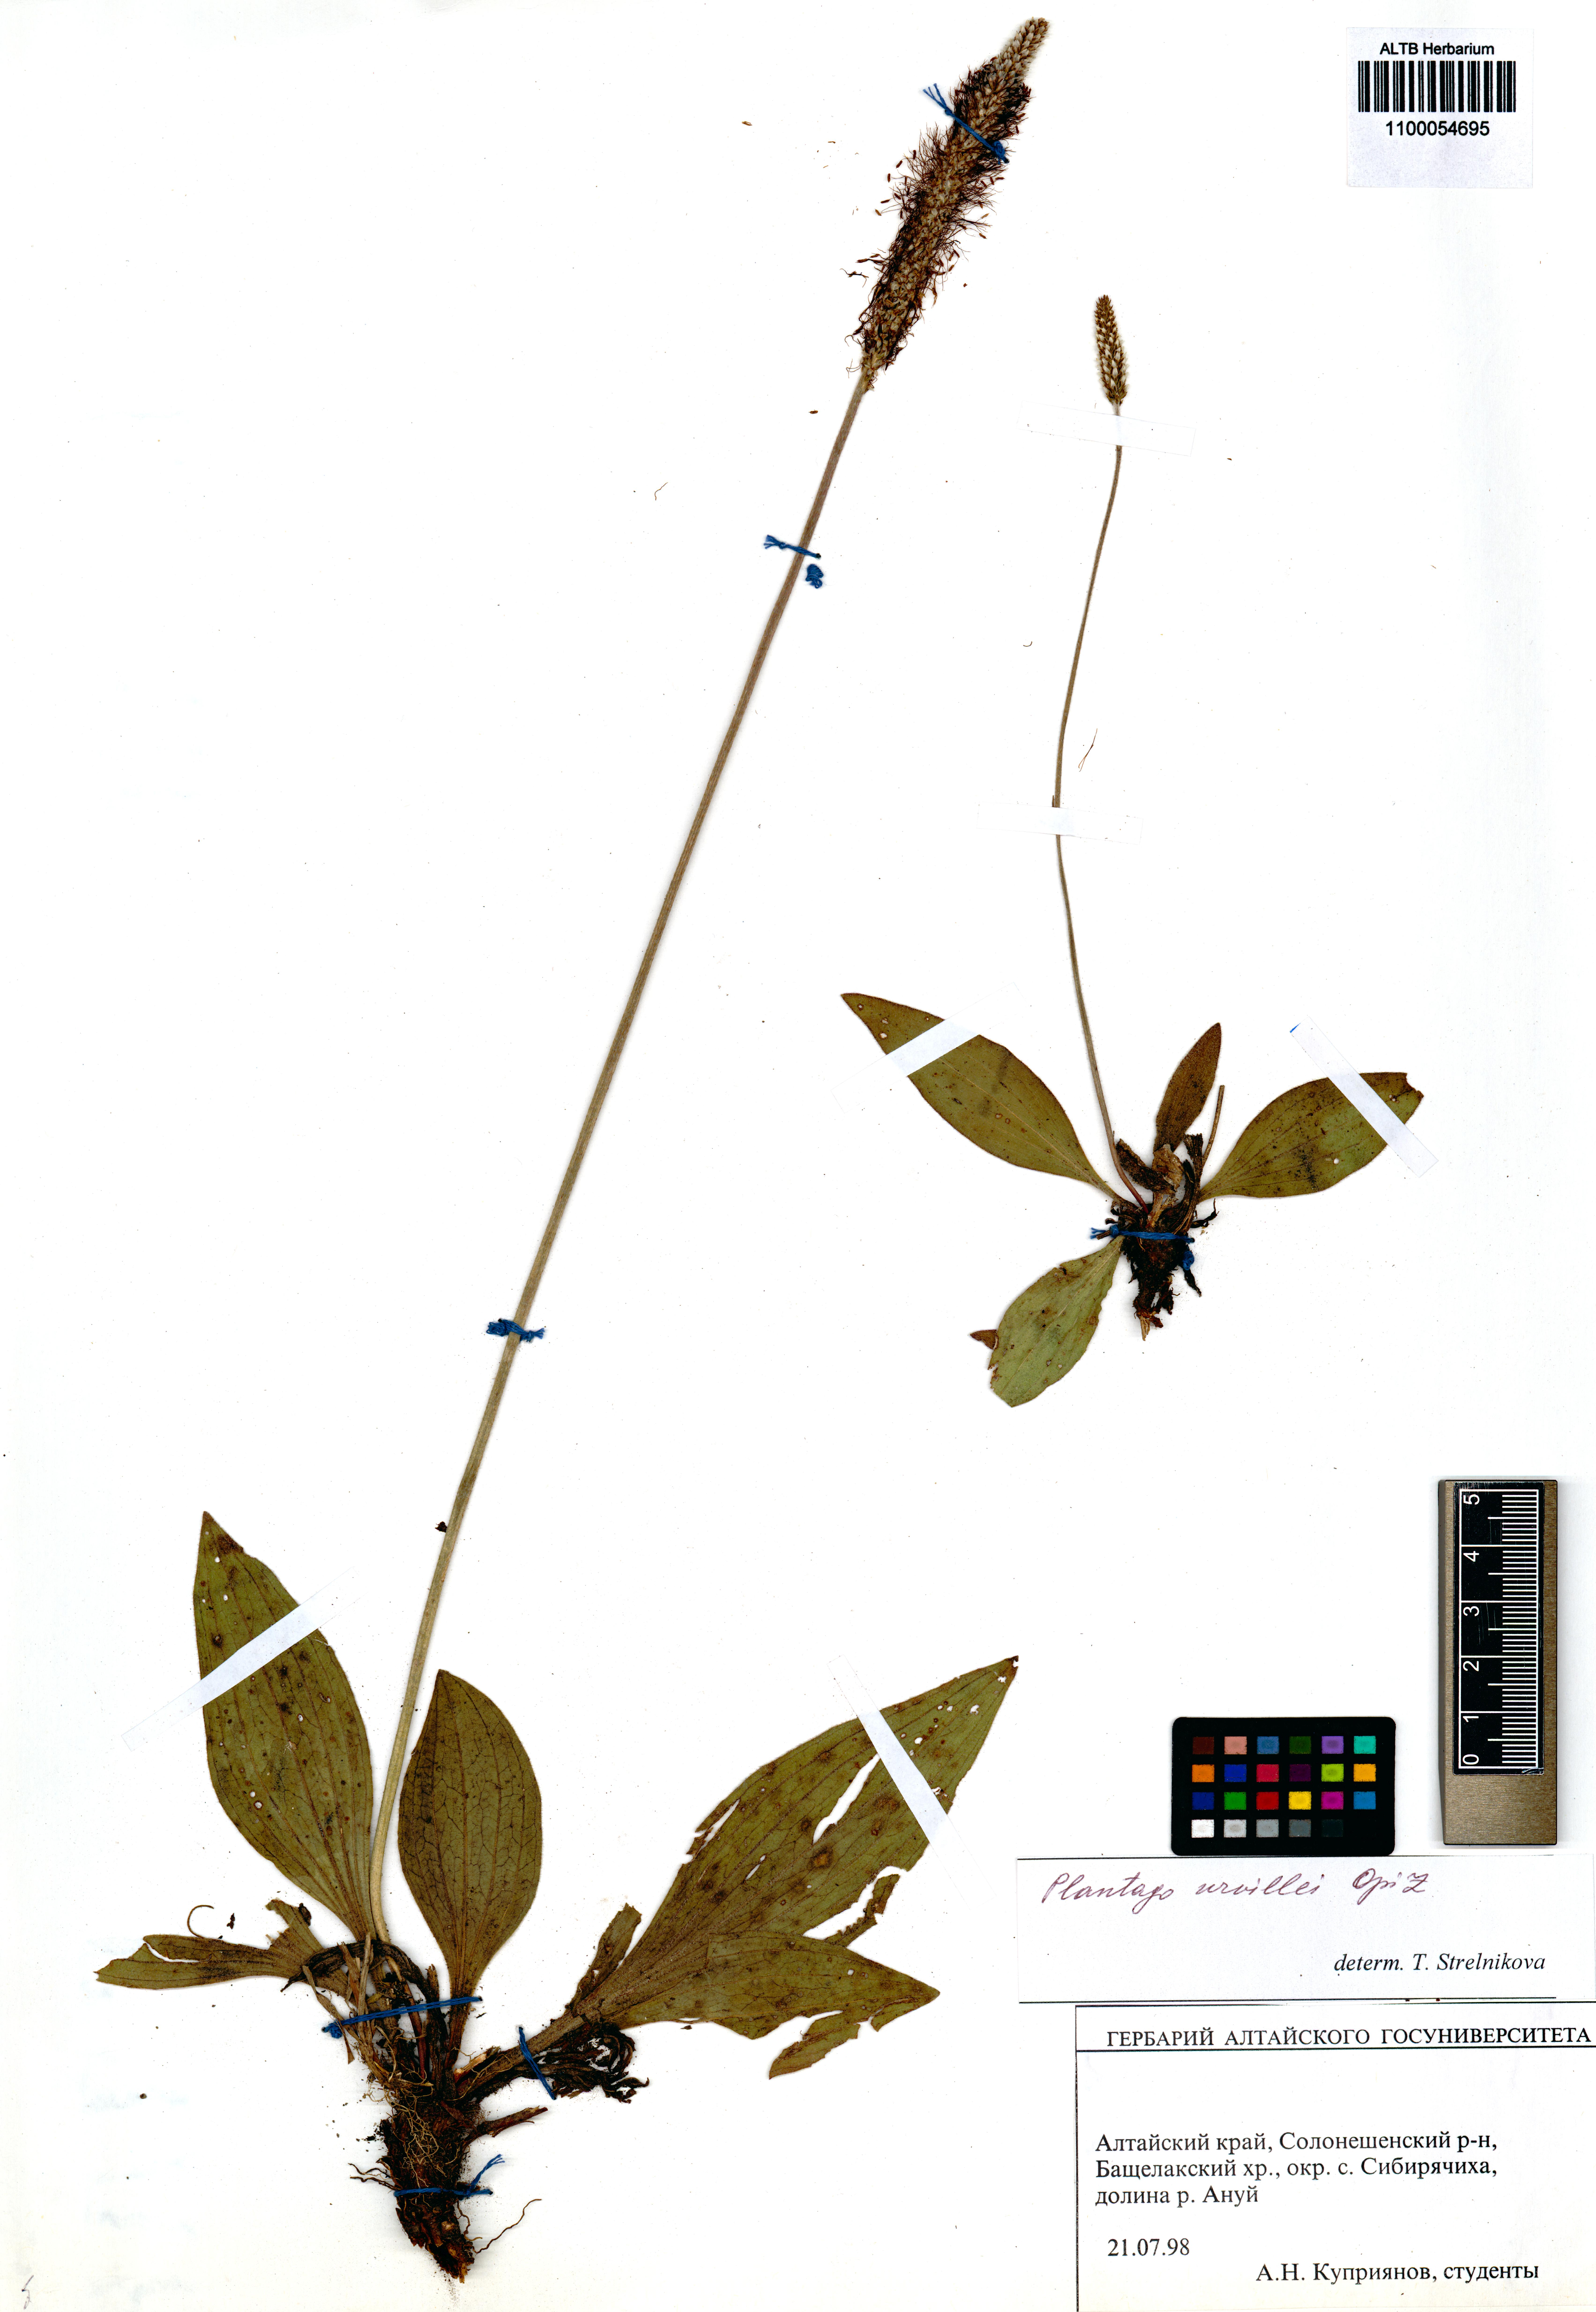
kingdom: Plantae
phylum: Tracheophyta
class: Magnoliopsida
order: Lamiales
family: Plantaginaceae
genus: Plantago
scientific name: Plantago urvillei
